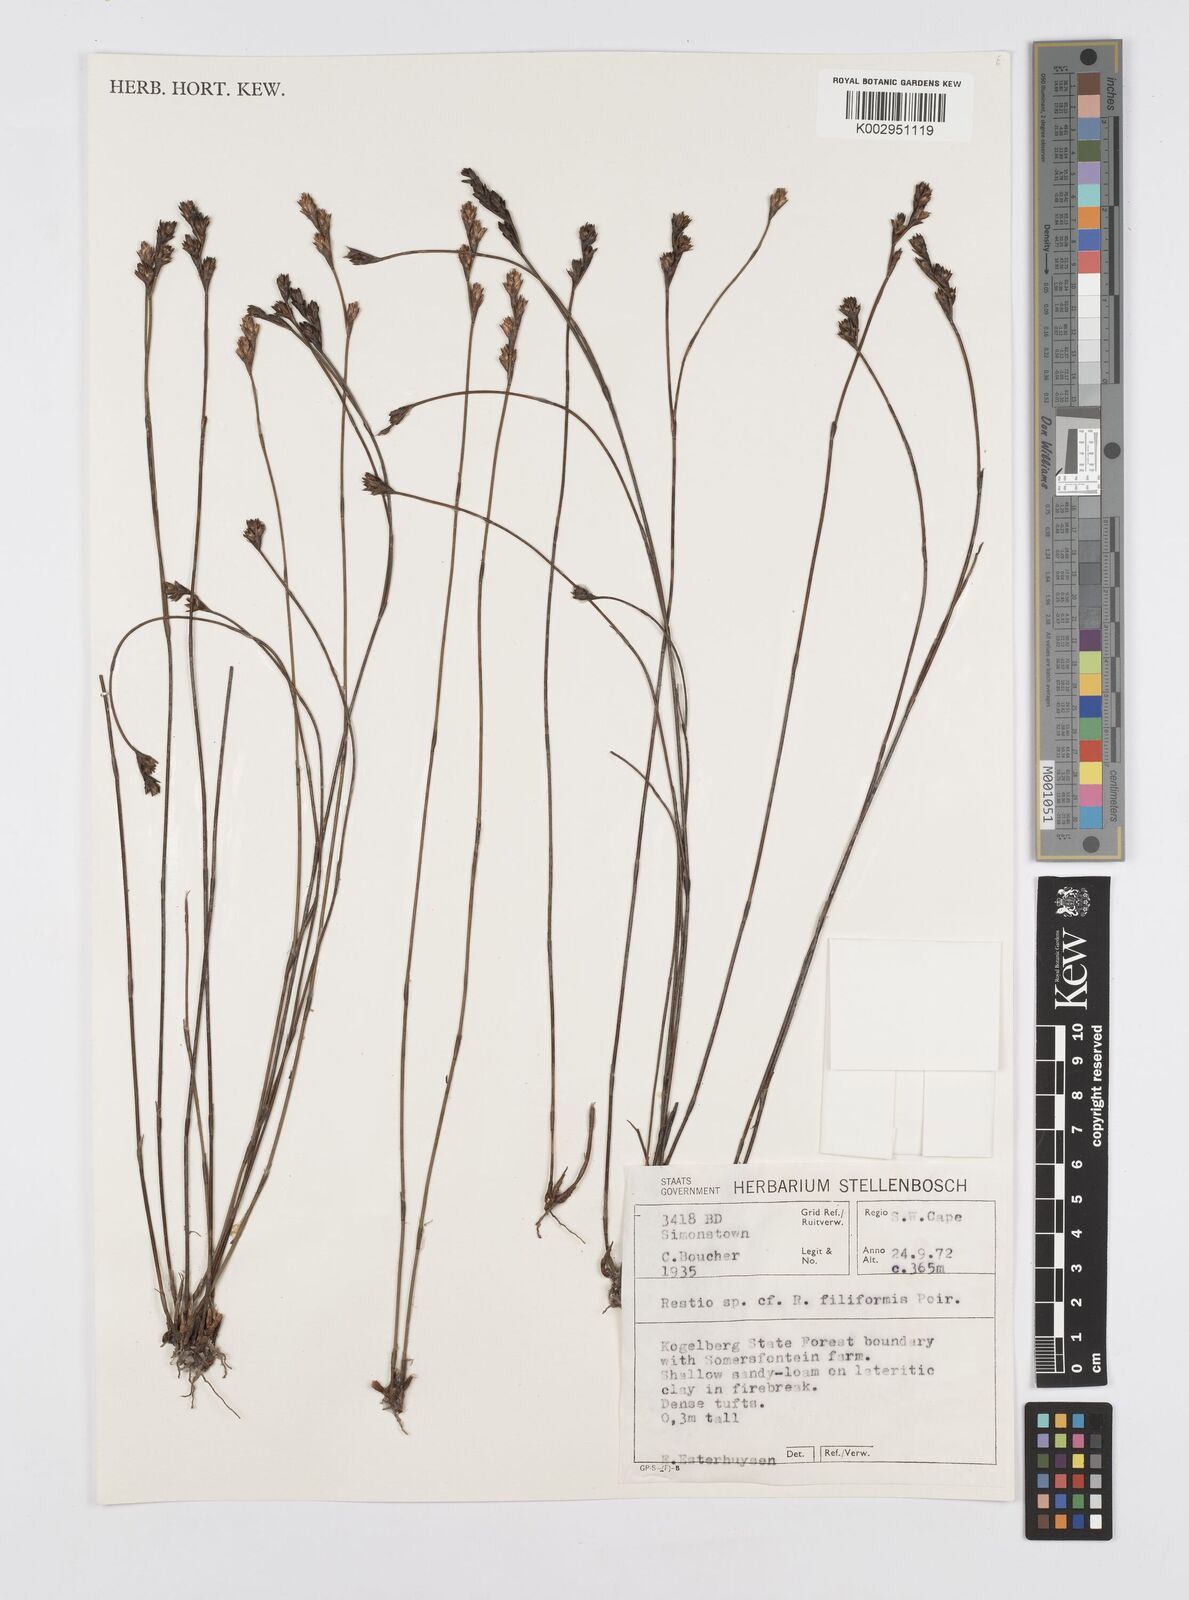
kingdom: Plantae
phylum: Tracheophyta
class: Liliopsida
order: Poales
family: Restionaceae
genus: Restio
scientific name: Restio filiformis
